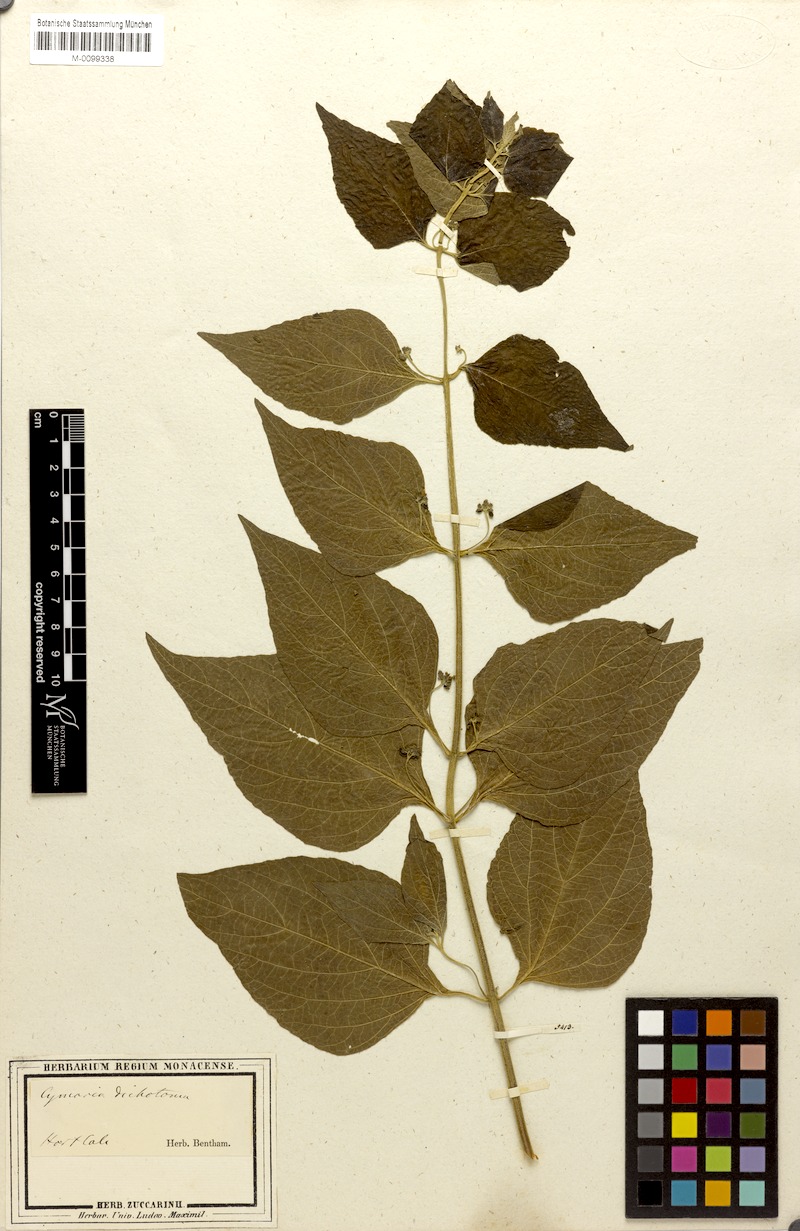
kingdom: Plantae
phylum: Tracheophyta
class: Magnoliopsida
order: Lamiales
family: Lamiaceae
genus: Cymaria
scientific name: Cymaria dichotoma
